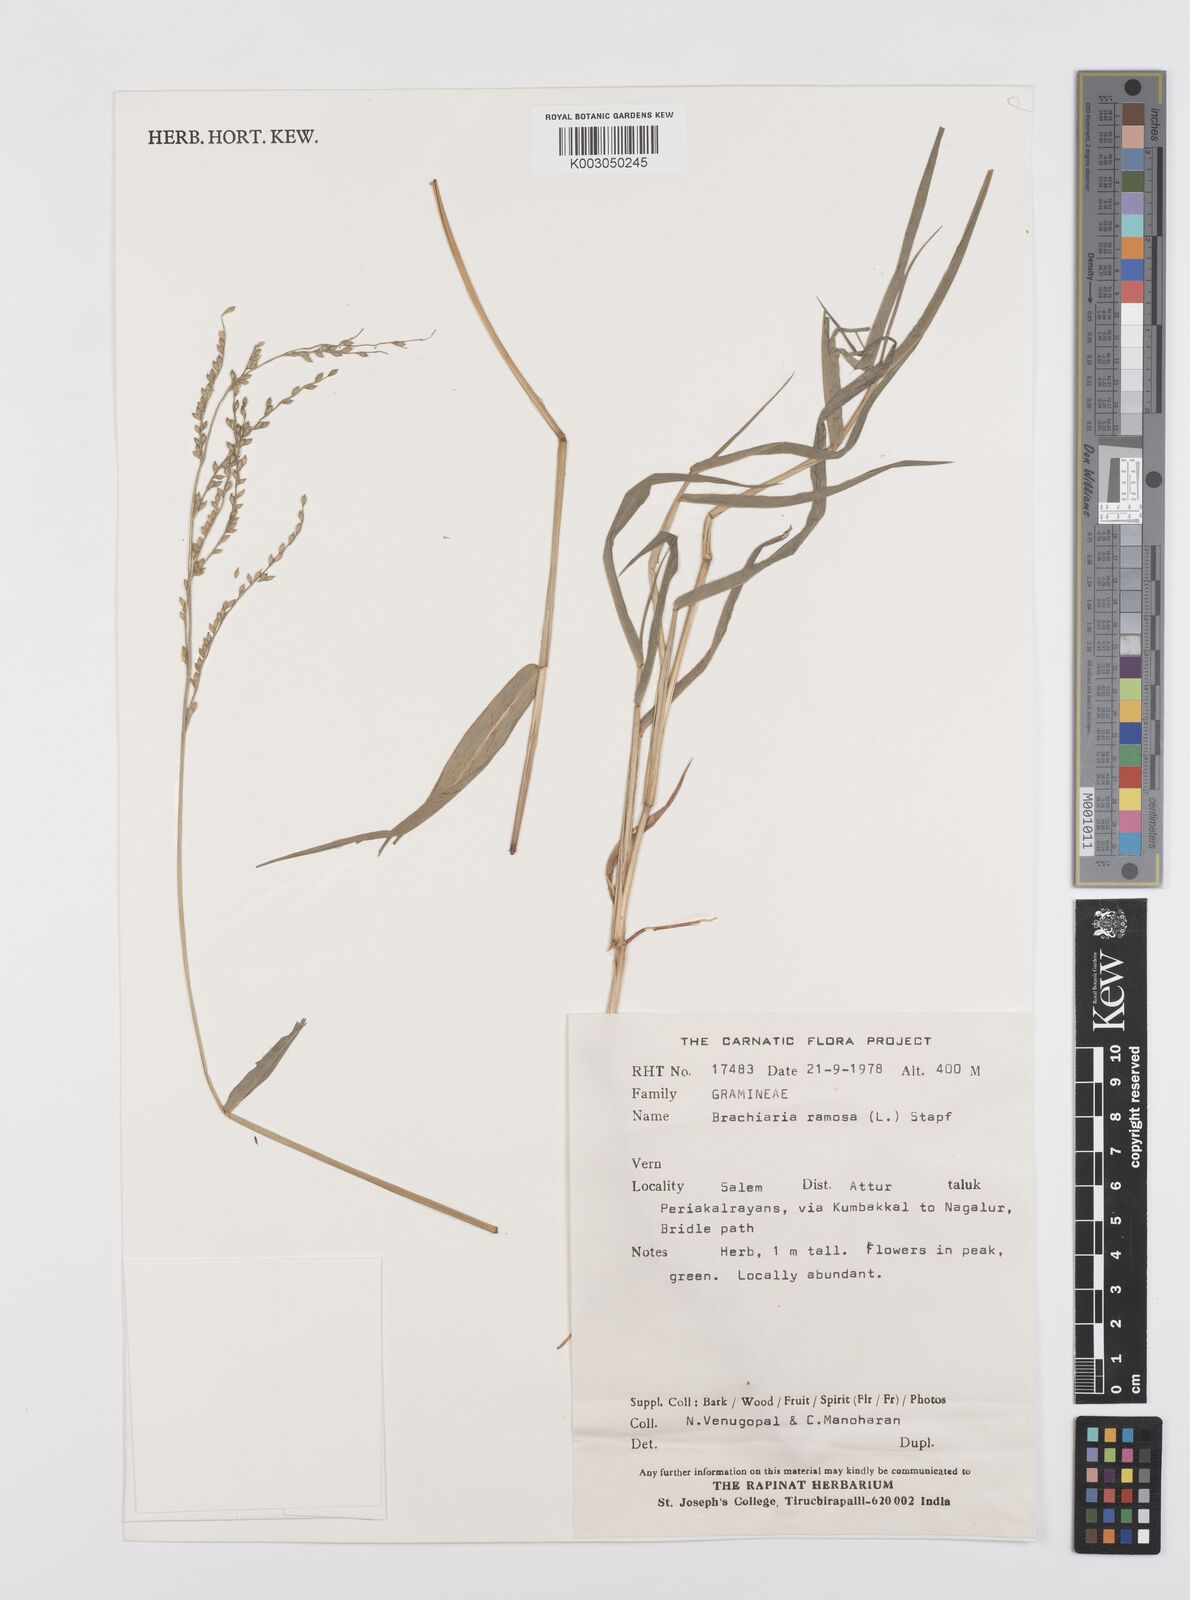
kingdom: Plantae
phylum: Tracheophyta
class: Liliopsida
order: Poales
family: Poaceae
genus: Urochloa
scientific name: Urochloa ramosa
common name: Browntop millet
